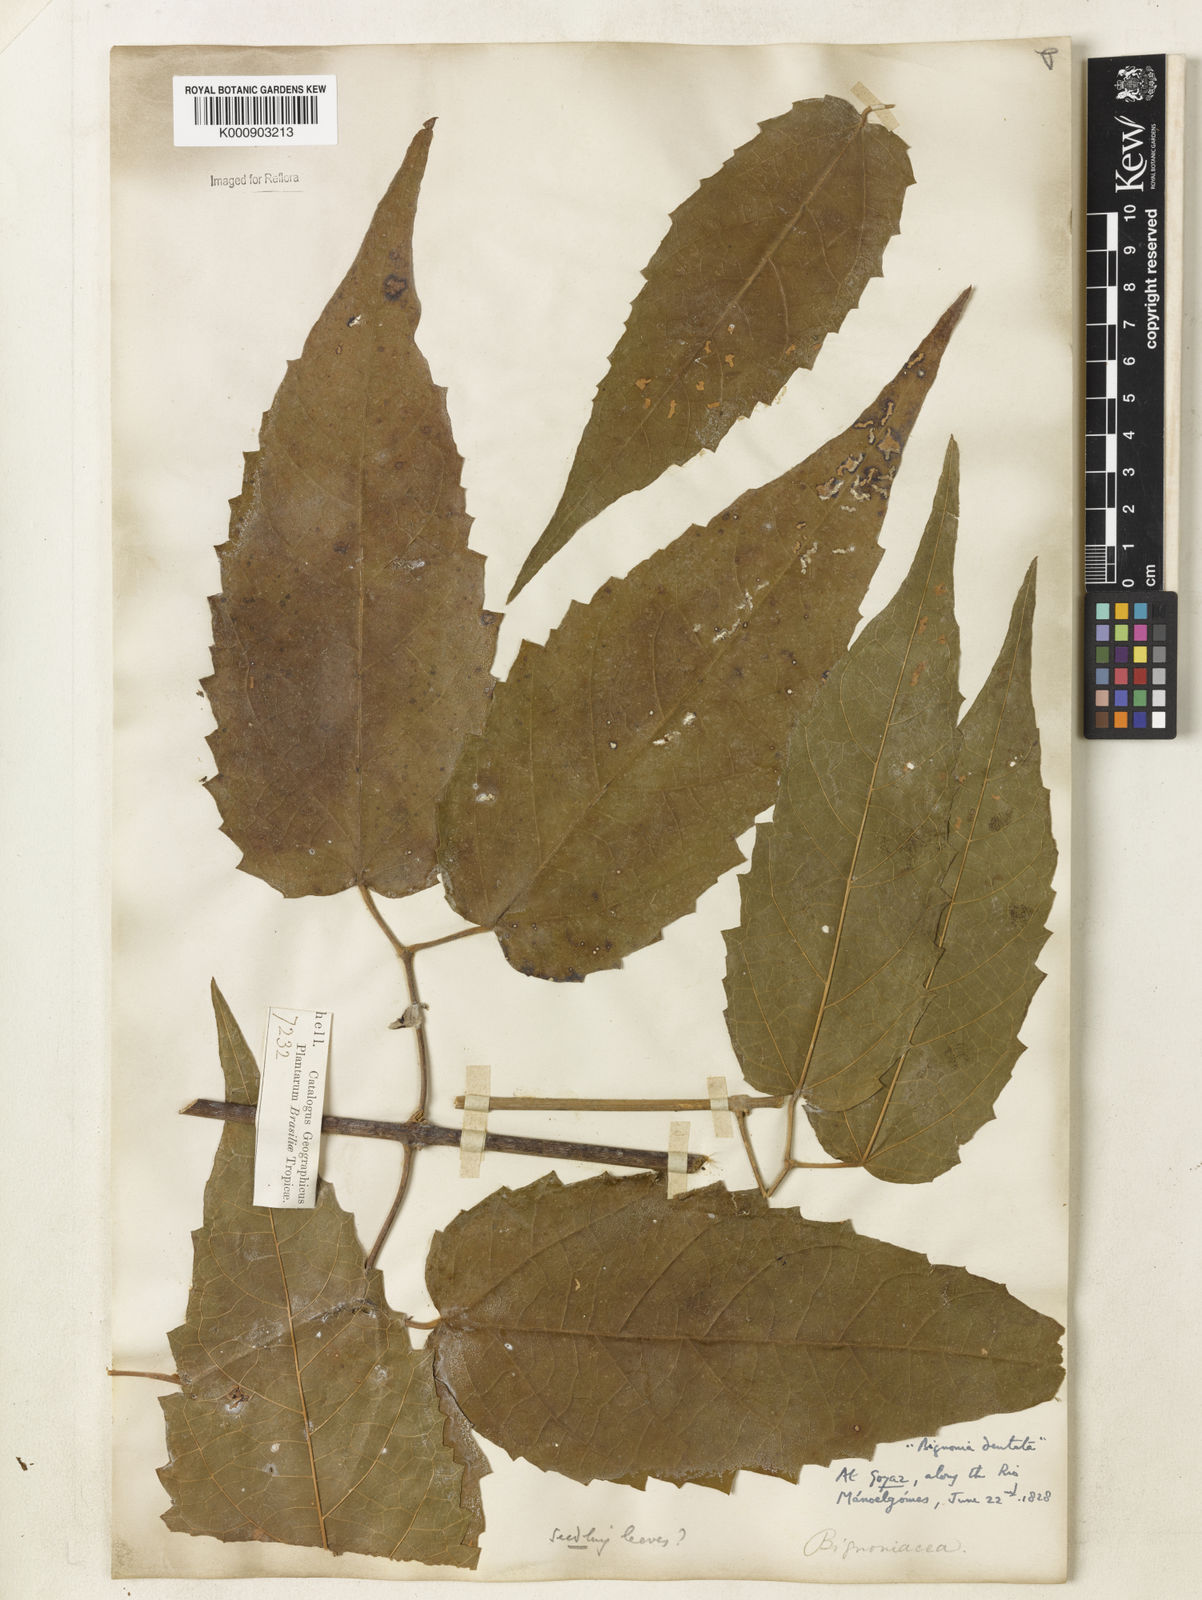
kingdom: Plantae
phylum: Tracheophyta
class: Magnoliopsida
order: Lamiales
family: Bignoniaceae
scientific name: Bignoniaceae
